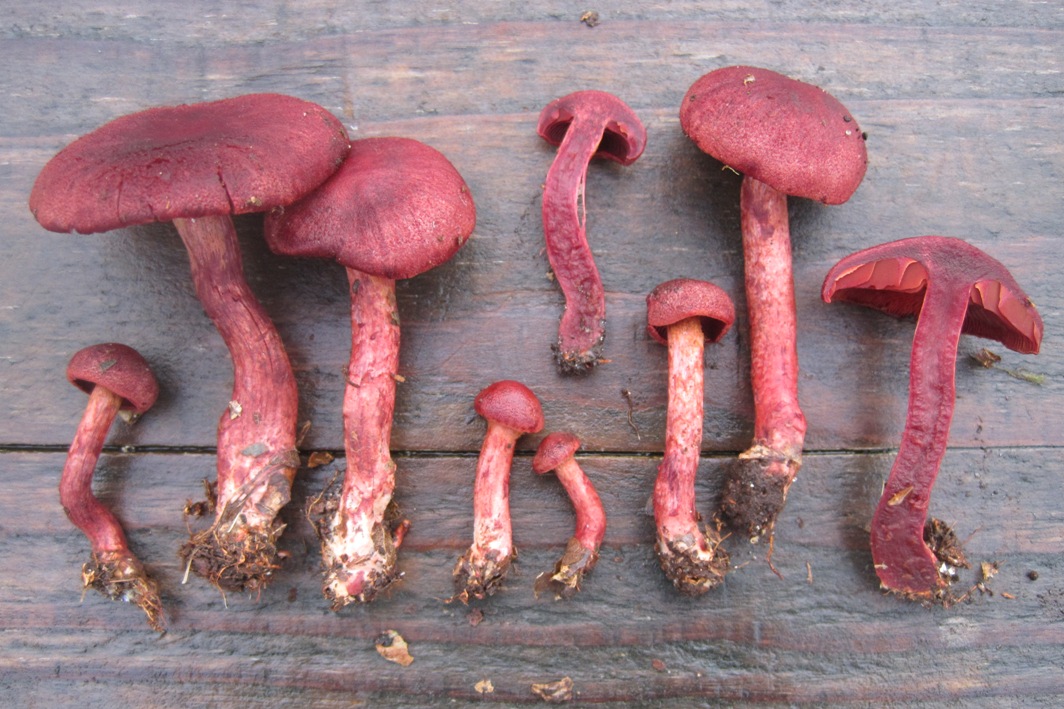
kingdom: Fungi
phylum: Basidiomycota
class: Agaricomycetes
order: Agaricales
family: Cortinariaceae
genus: Cortinarius
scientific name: Cortinarius sanguineus
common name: Bloodred webcap
